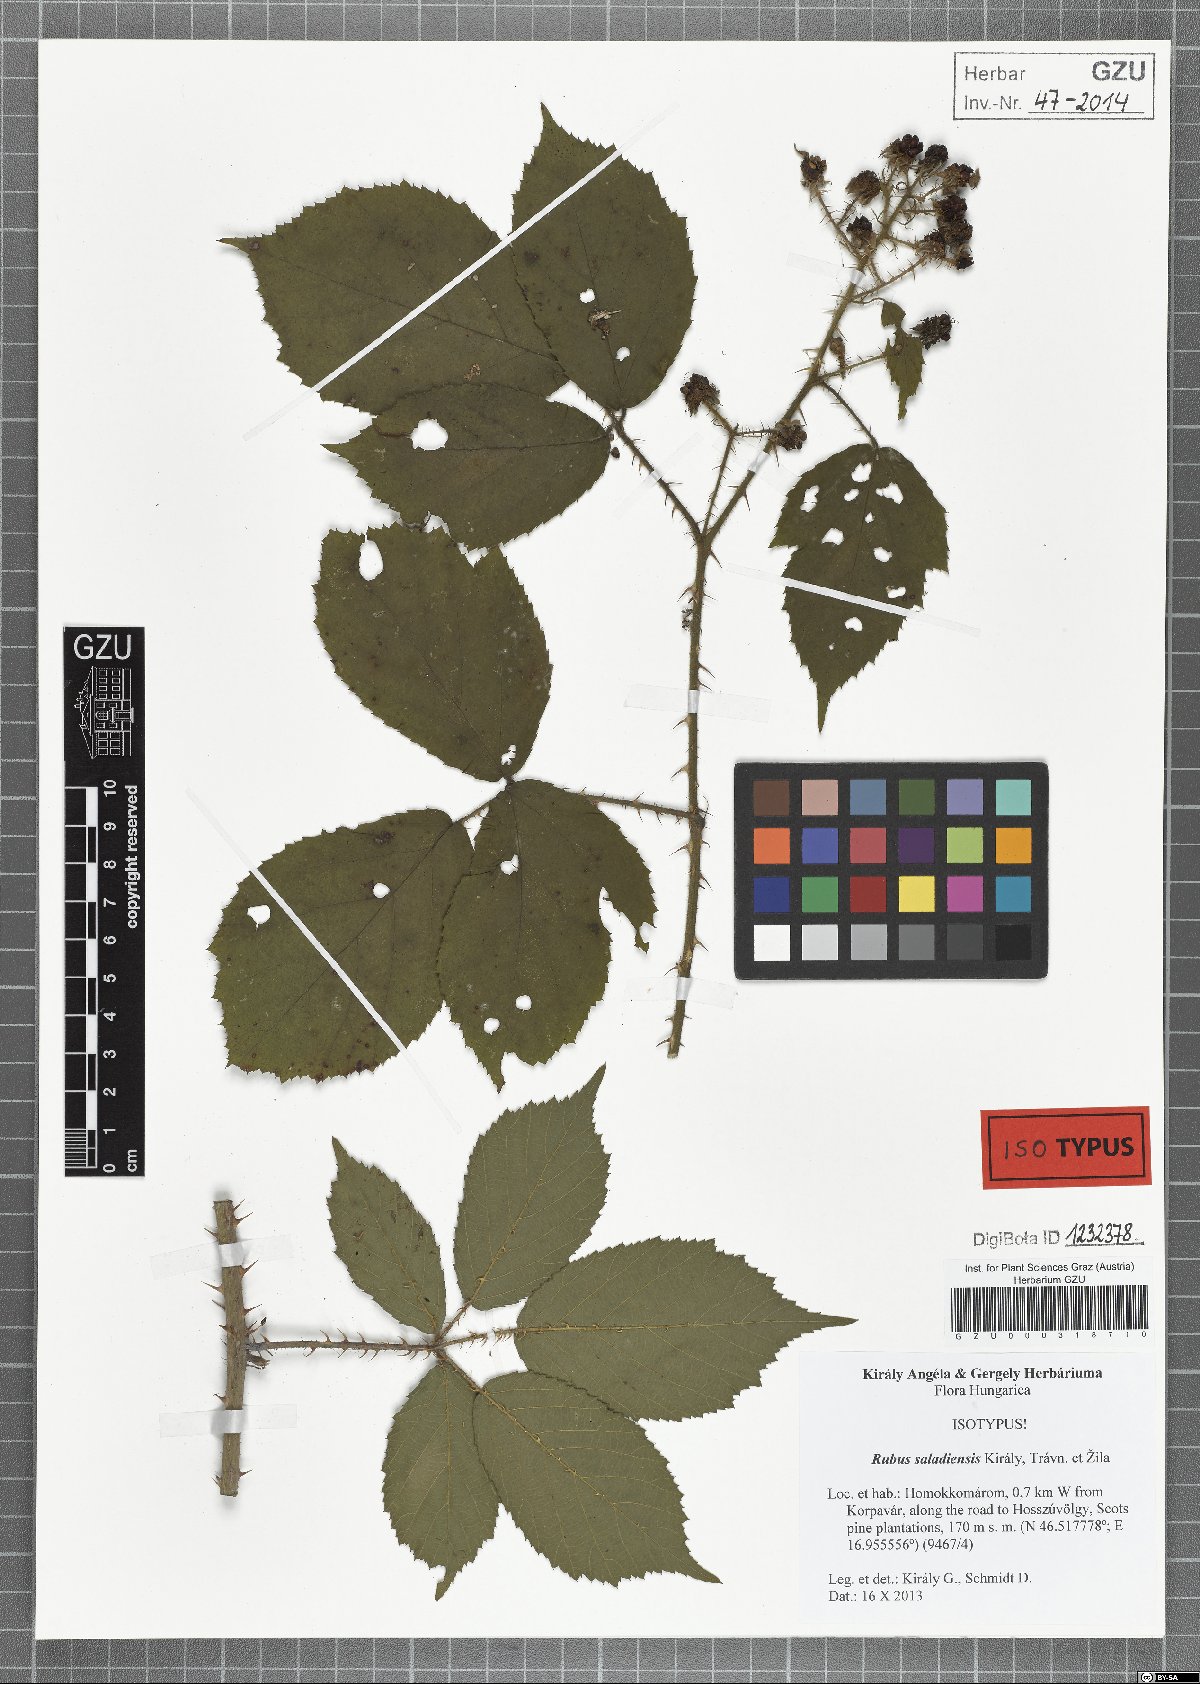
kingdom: Plantae
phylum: Tracheophyta
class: Magnoliopsida
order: Rosales
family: Rosaceae
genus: Rubus
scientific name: Rubus saladiensis
